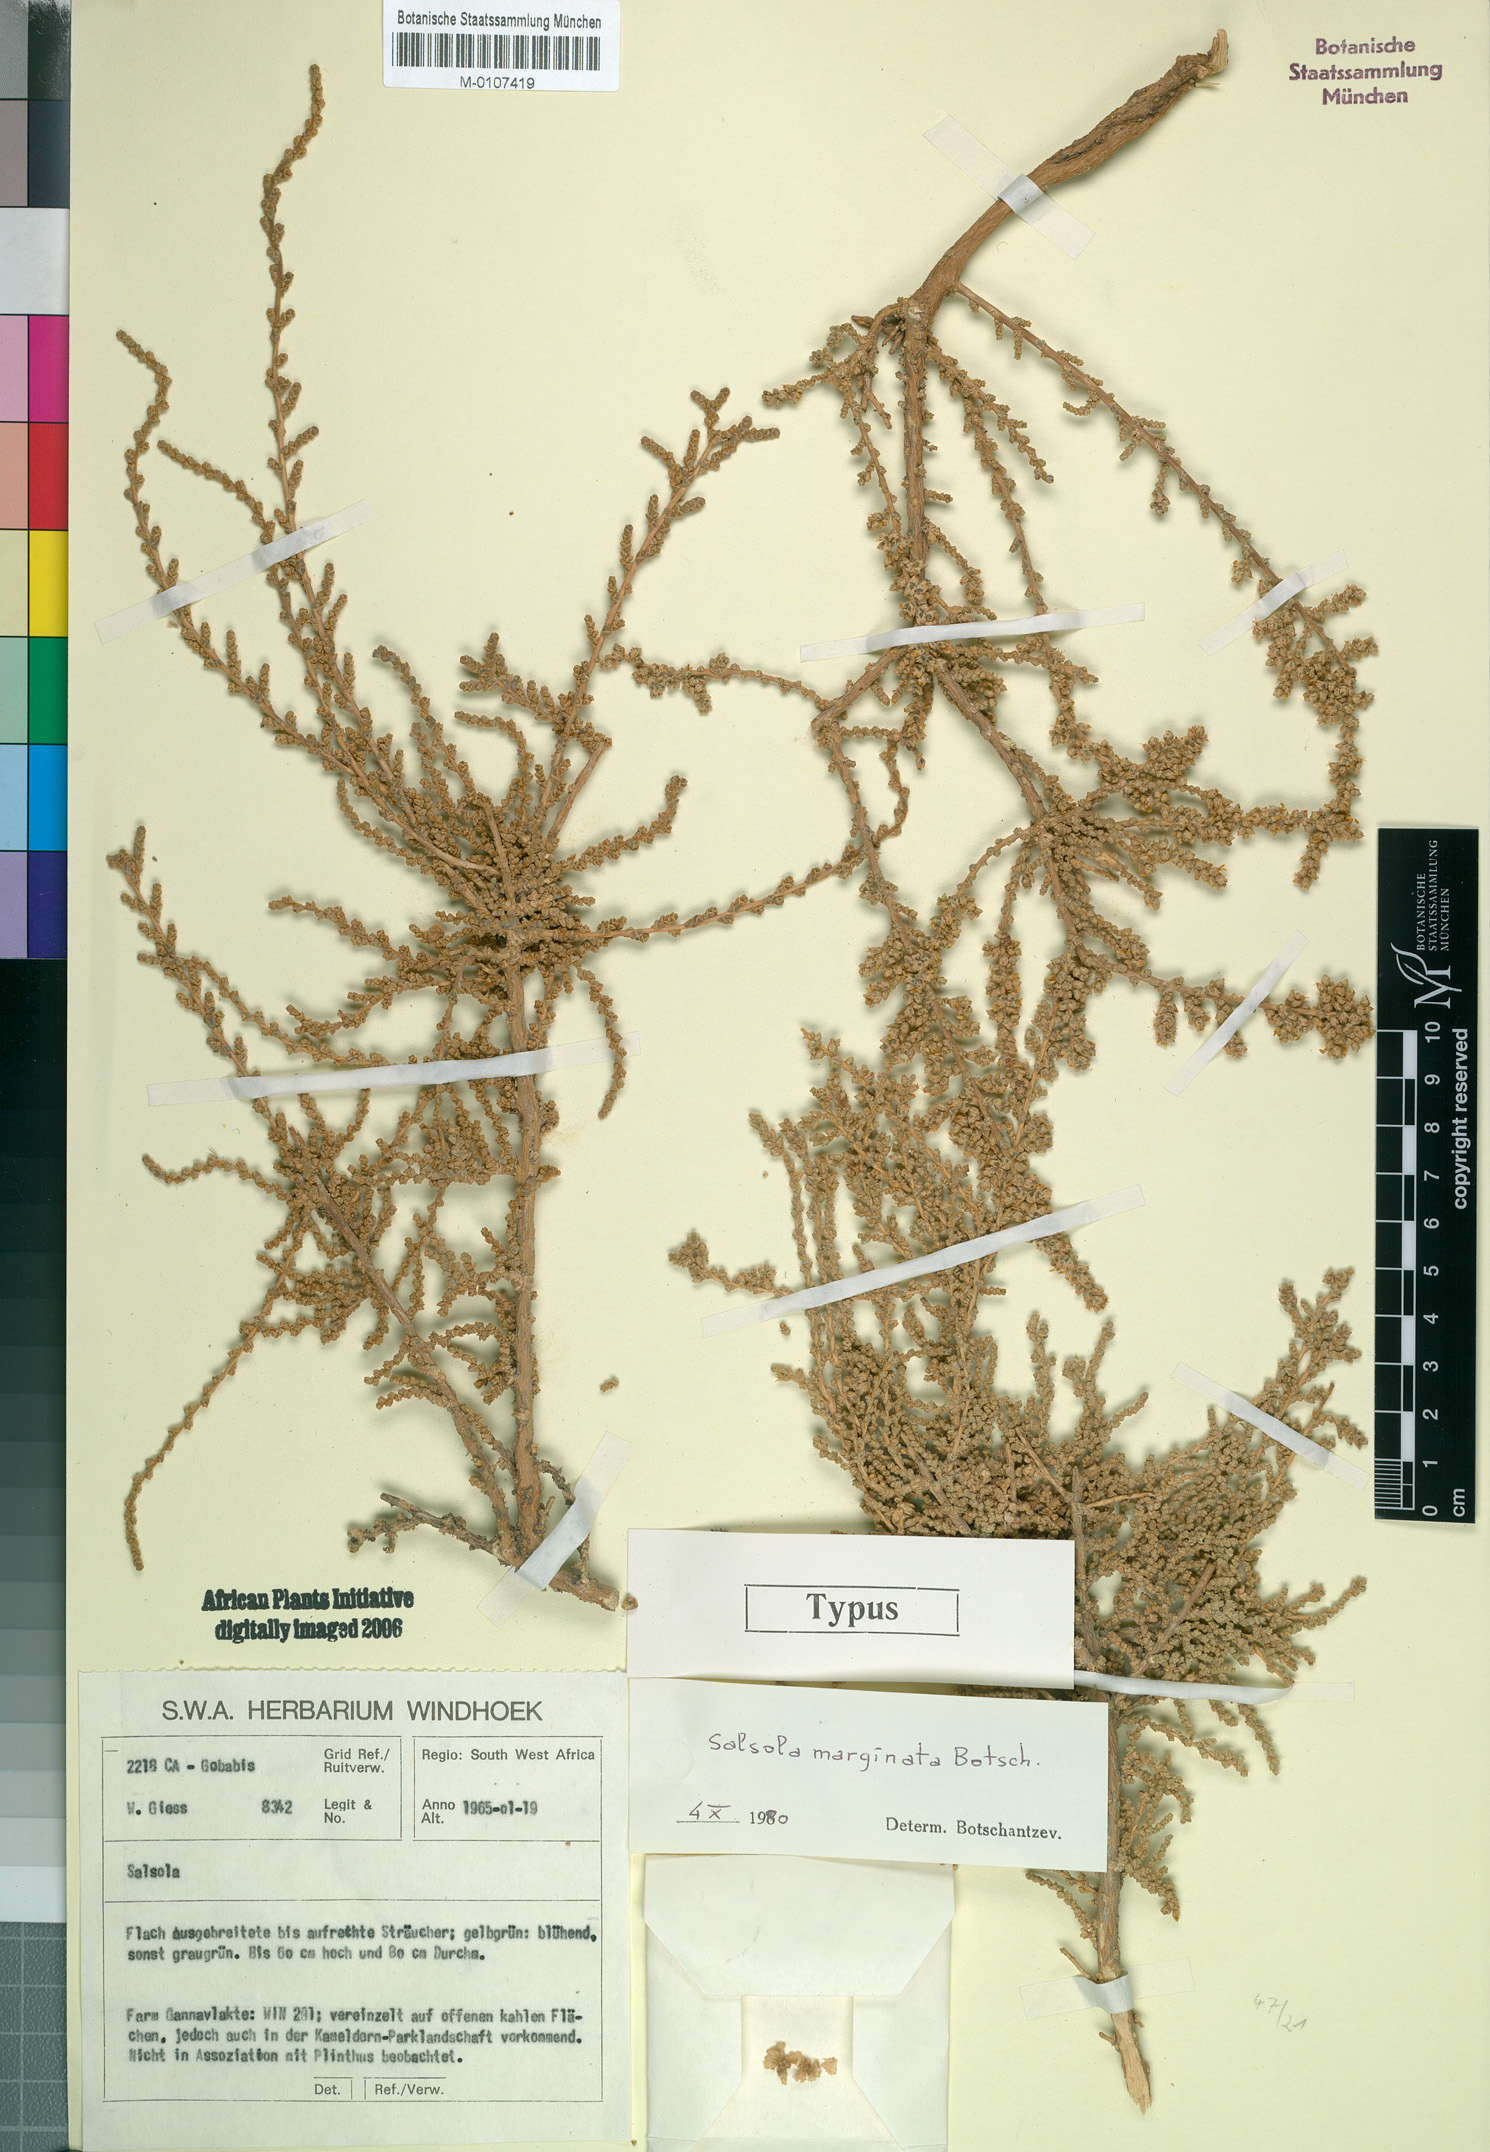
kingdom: Plantae
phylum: Tracheophyta
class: Magnoliopsida
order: Caryophyllales
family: Amaranthaceae
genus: Caroxylon
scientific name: Caroxylon marginatum
